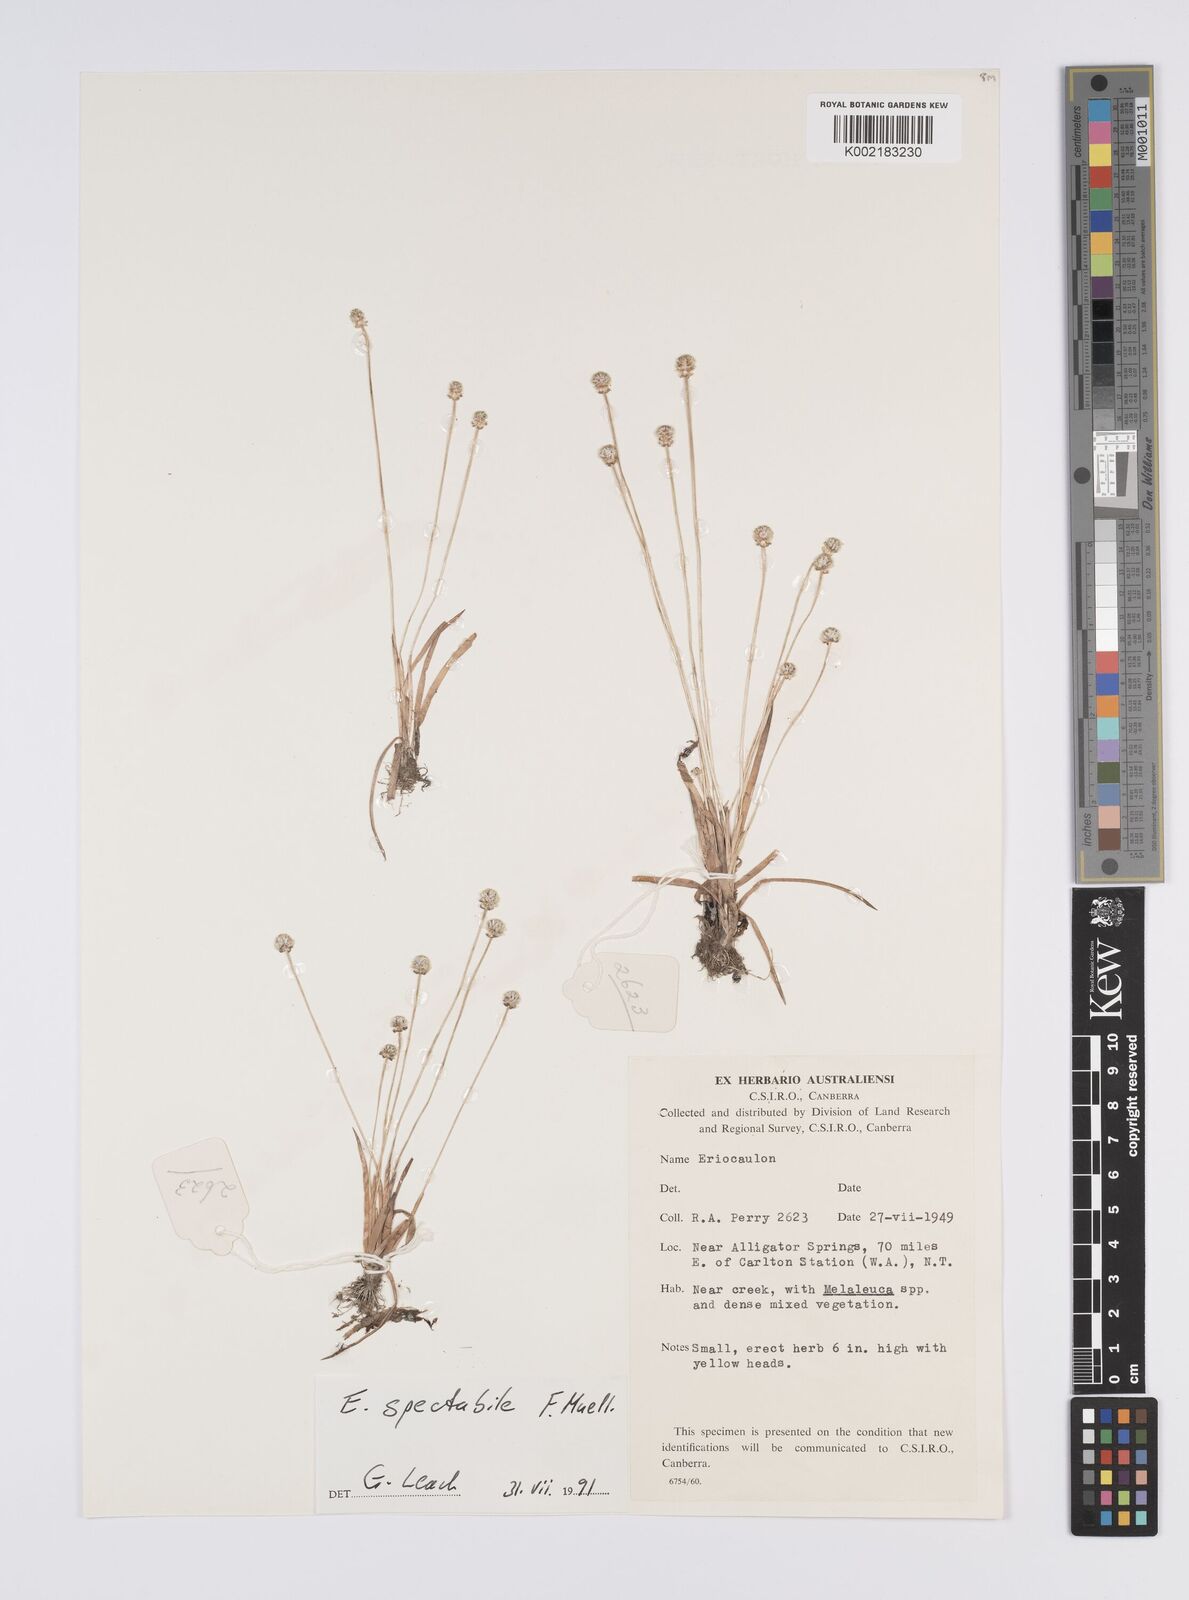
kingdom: Plantae
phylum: Tracheophyta
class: Liliopsida
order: Poales
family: Eriocaulaceae
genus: Eriocaulon
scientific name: Eriocaulon spectabile
